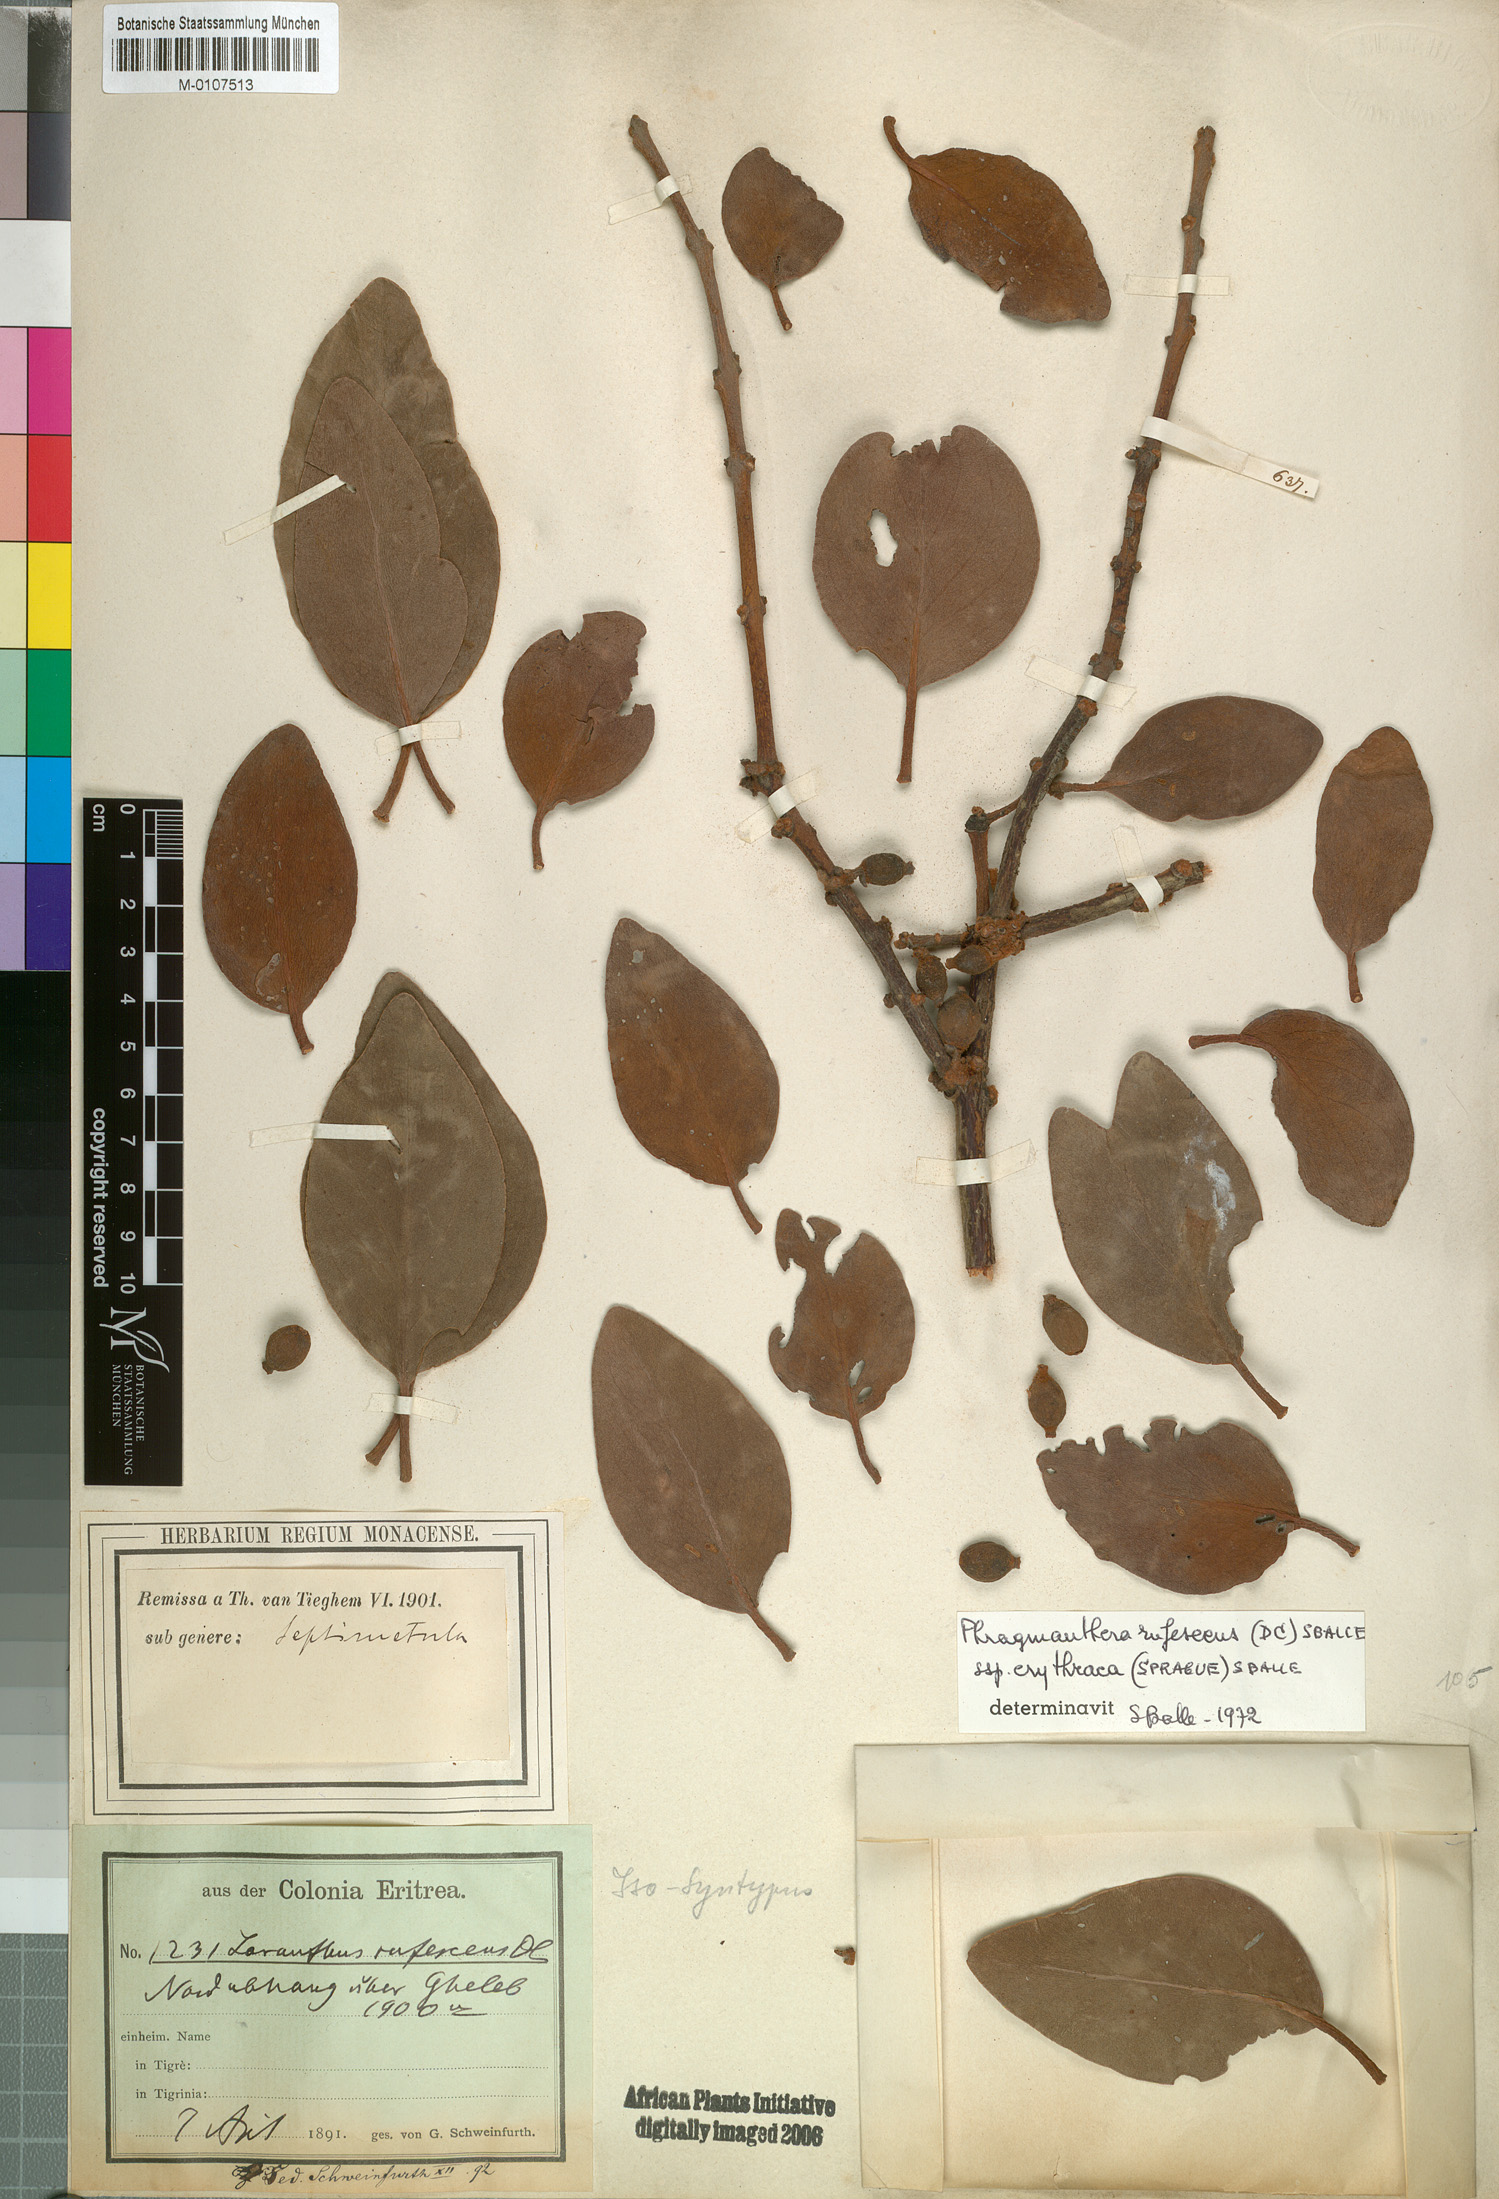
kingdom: Plantae
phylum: Tracheophyta
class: Magnoliopsida
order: Santalales
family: Loranthaceae
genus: Phragmanthera
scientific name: Phragmanthera erythraea
